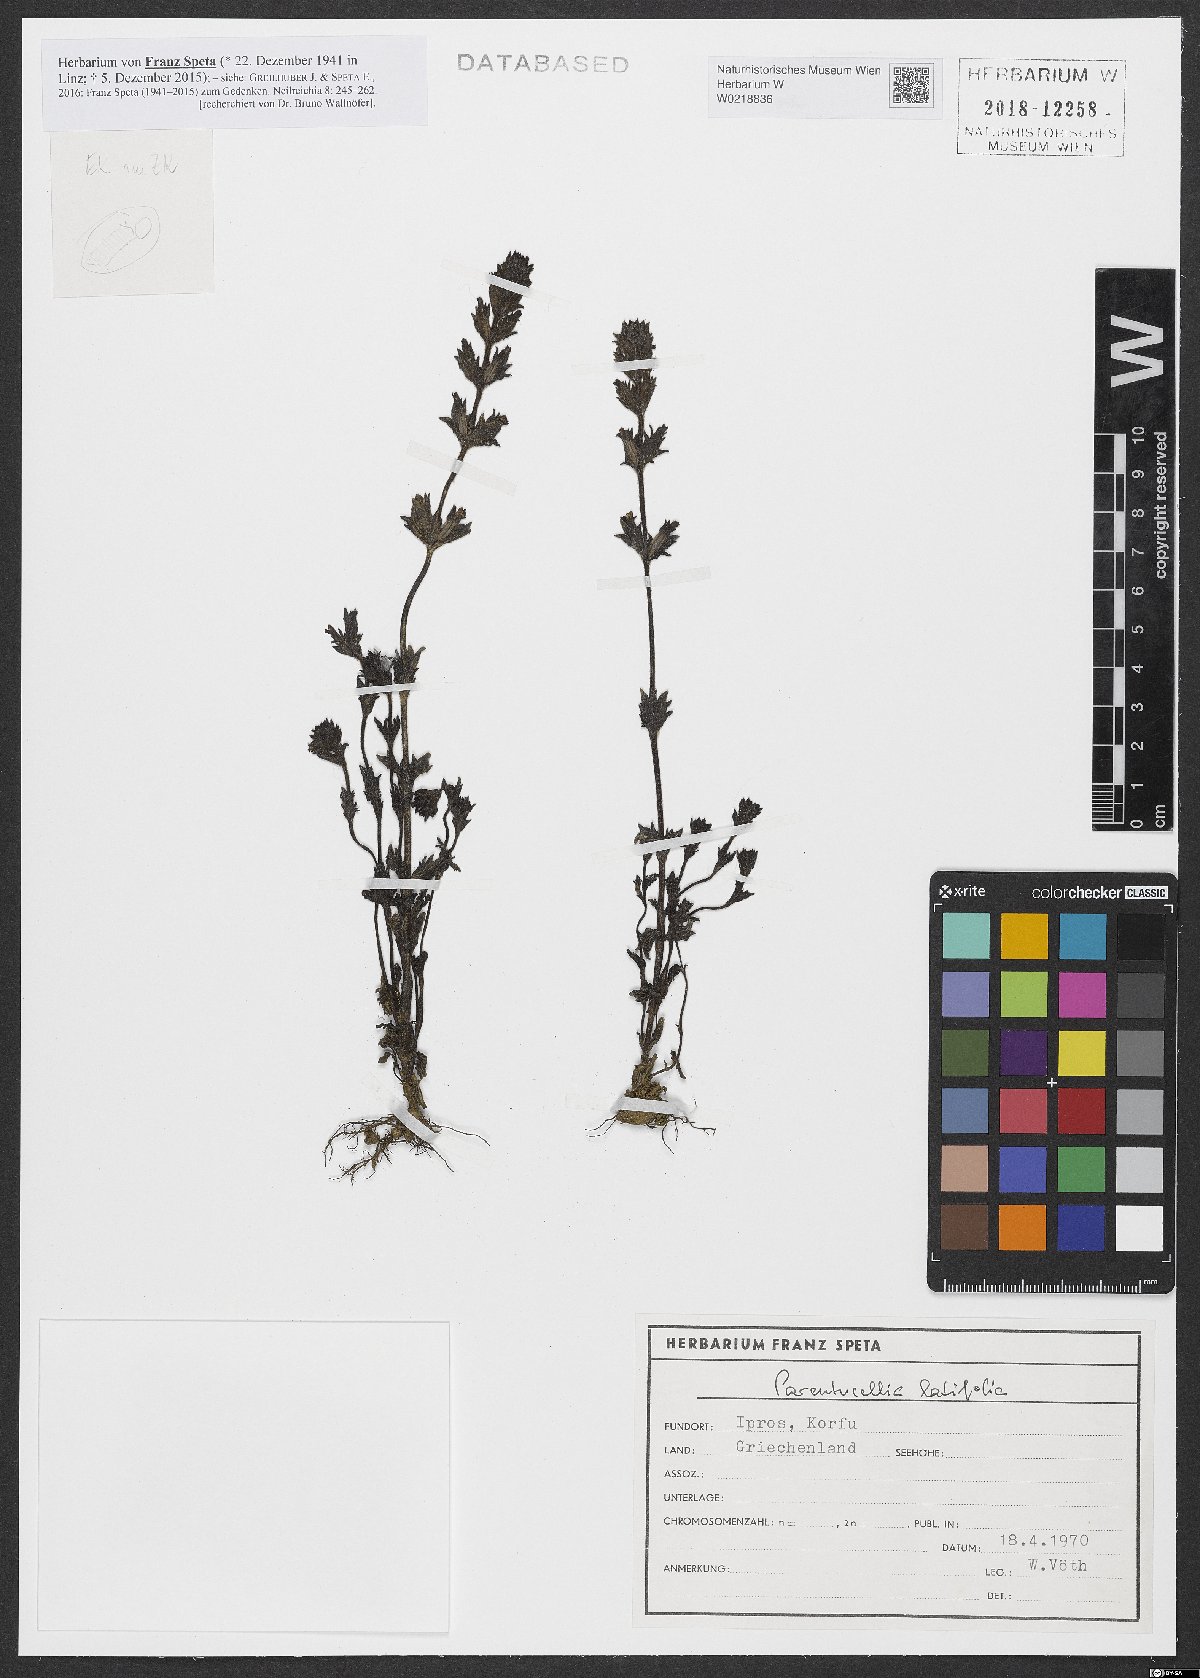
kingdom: Plantae
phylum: Tracheophyta
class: Magnoliopsida
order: Lamiales
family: Orobanchaceae
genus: Parentucellia
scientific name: Parentucellia latifolia
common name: Broadleaf glandweed
